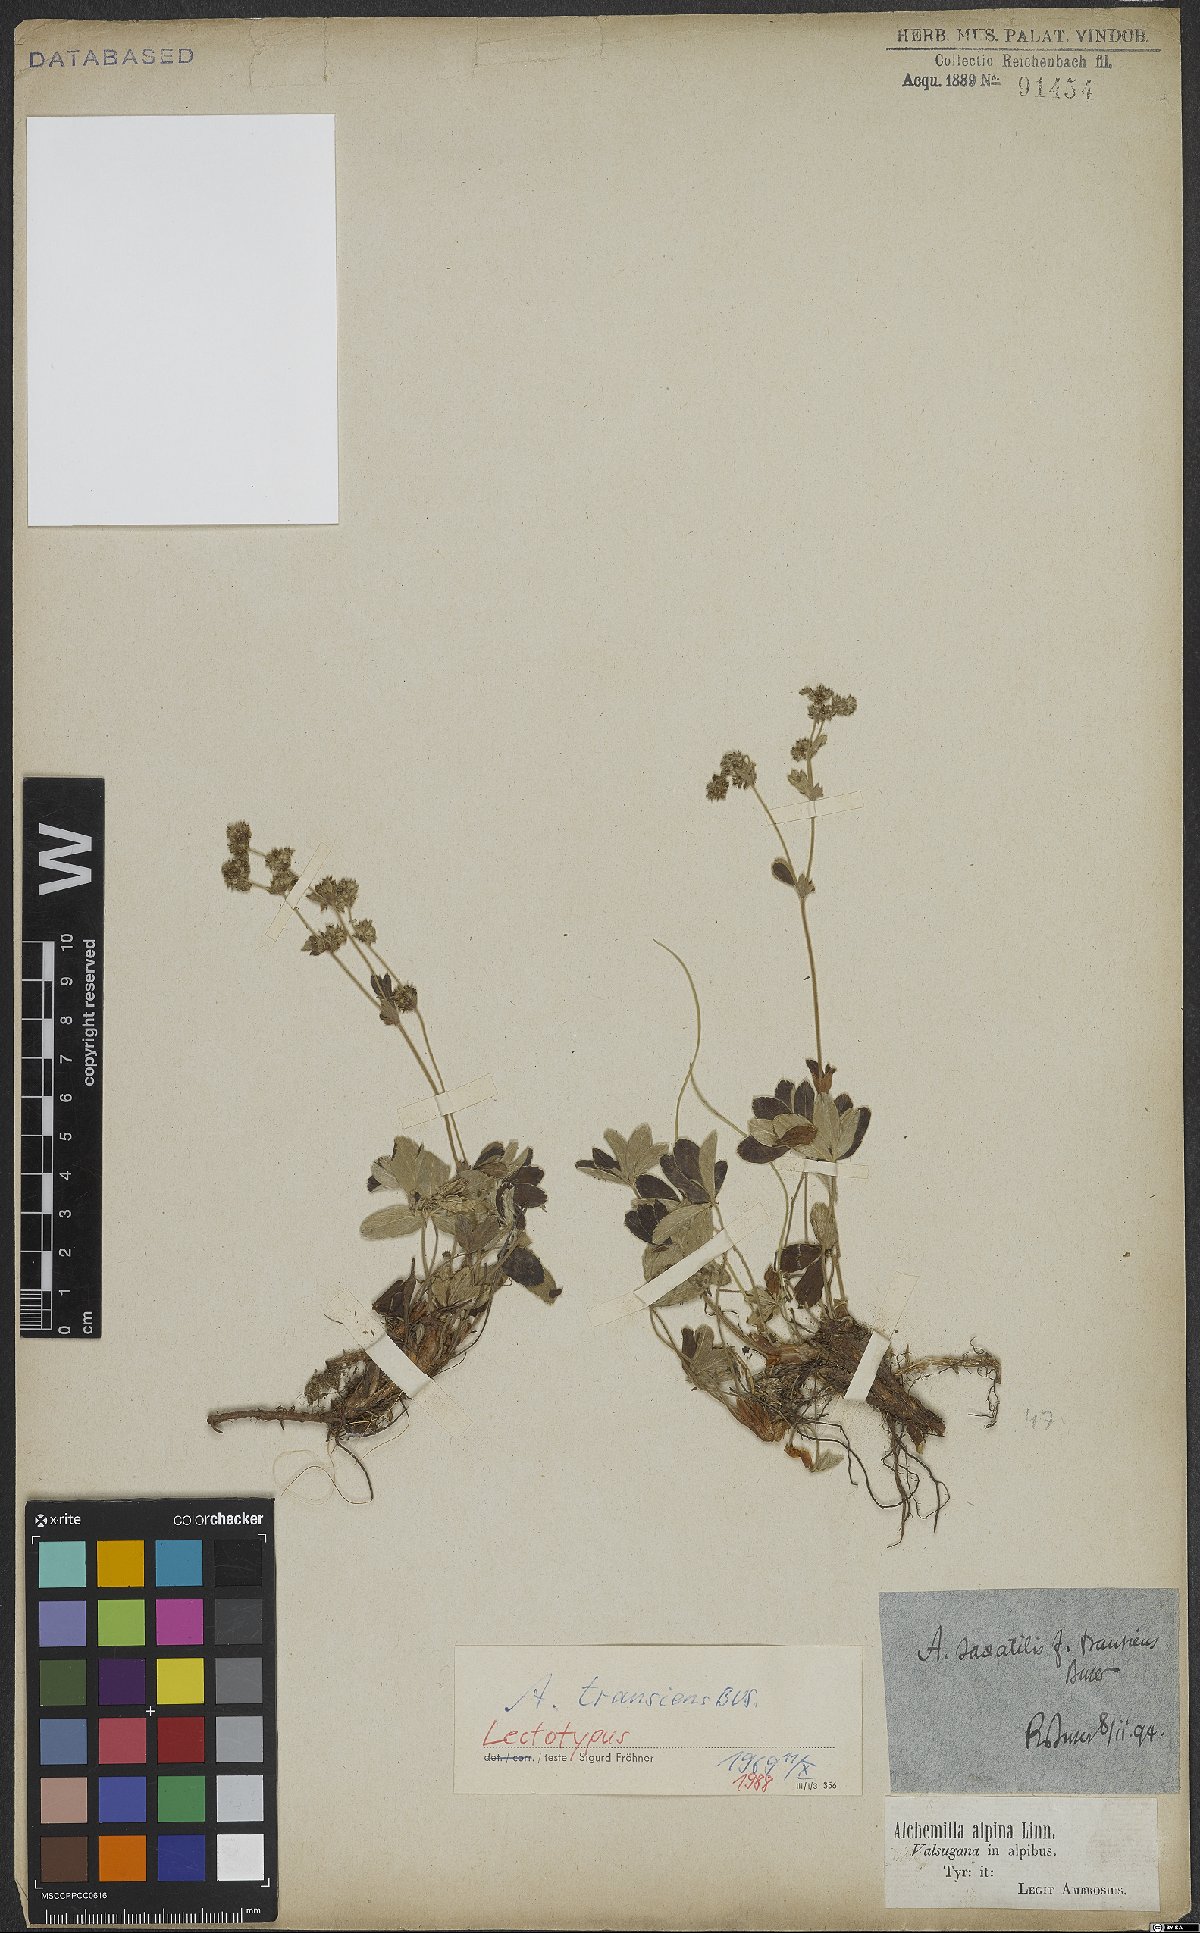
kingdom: Plantae
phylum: Tracheophyta
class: Magnoliopsida
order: Rosales
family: Rosaceae
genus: Alchemilla
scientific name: Alchemilla transiens
